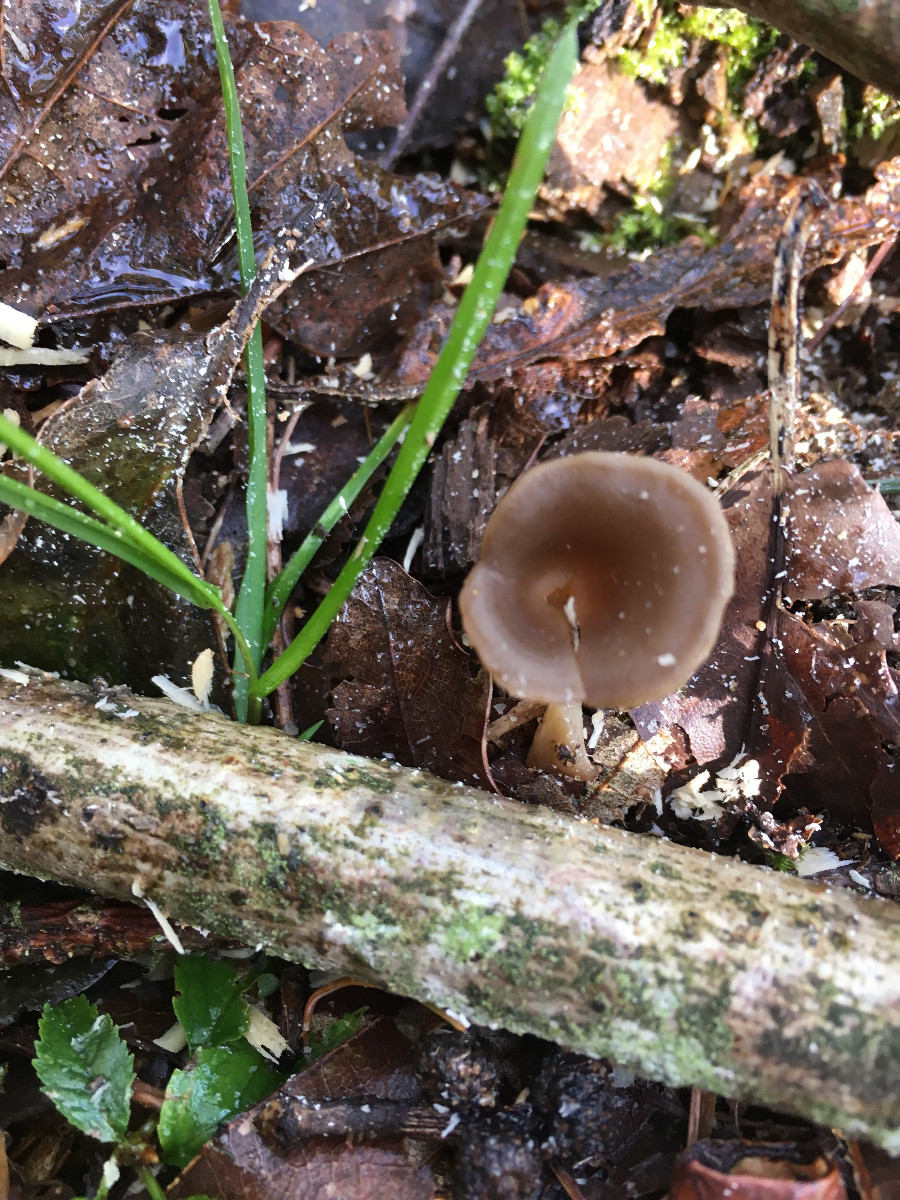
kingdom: Fungi
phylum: Basidiomycota
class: Agaricomycetes
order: Agaricales
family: Tricholomataceae
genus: Clitocybe
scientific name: Clitocybe
